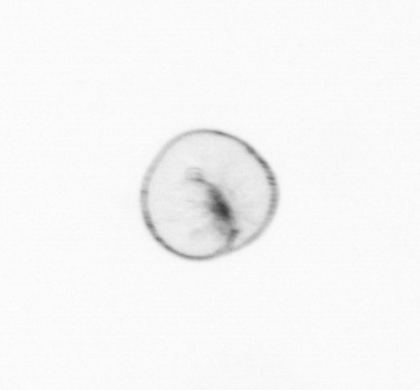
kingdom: Chromista
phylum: Myzozoa
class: Dinophyceae
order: Noctilucales
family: Noctilucaceae
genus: Noctiluca
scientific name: Noctiluca scintillans
